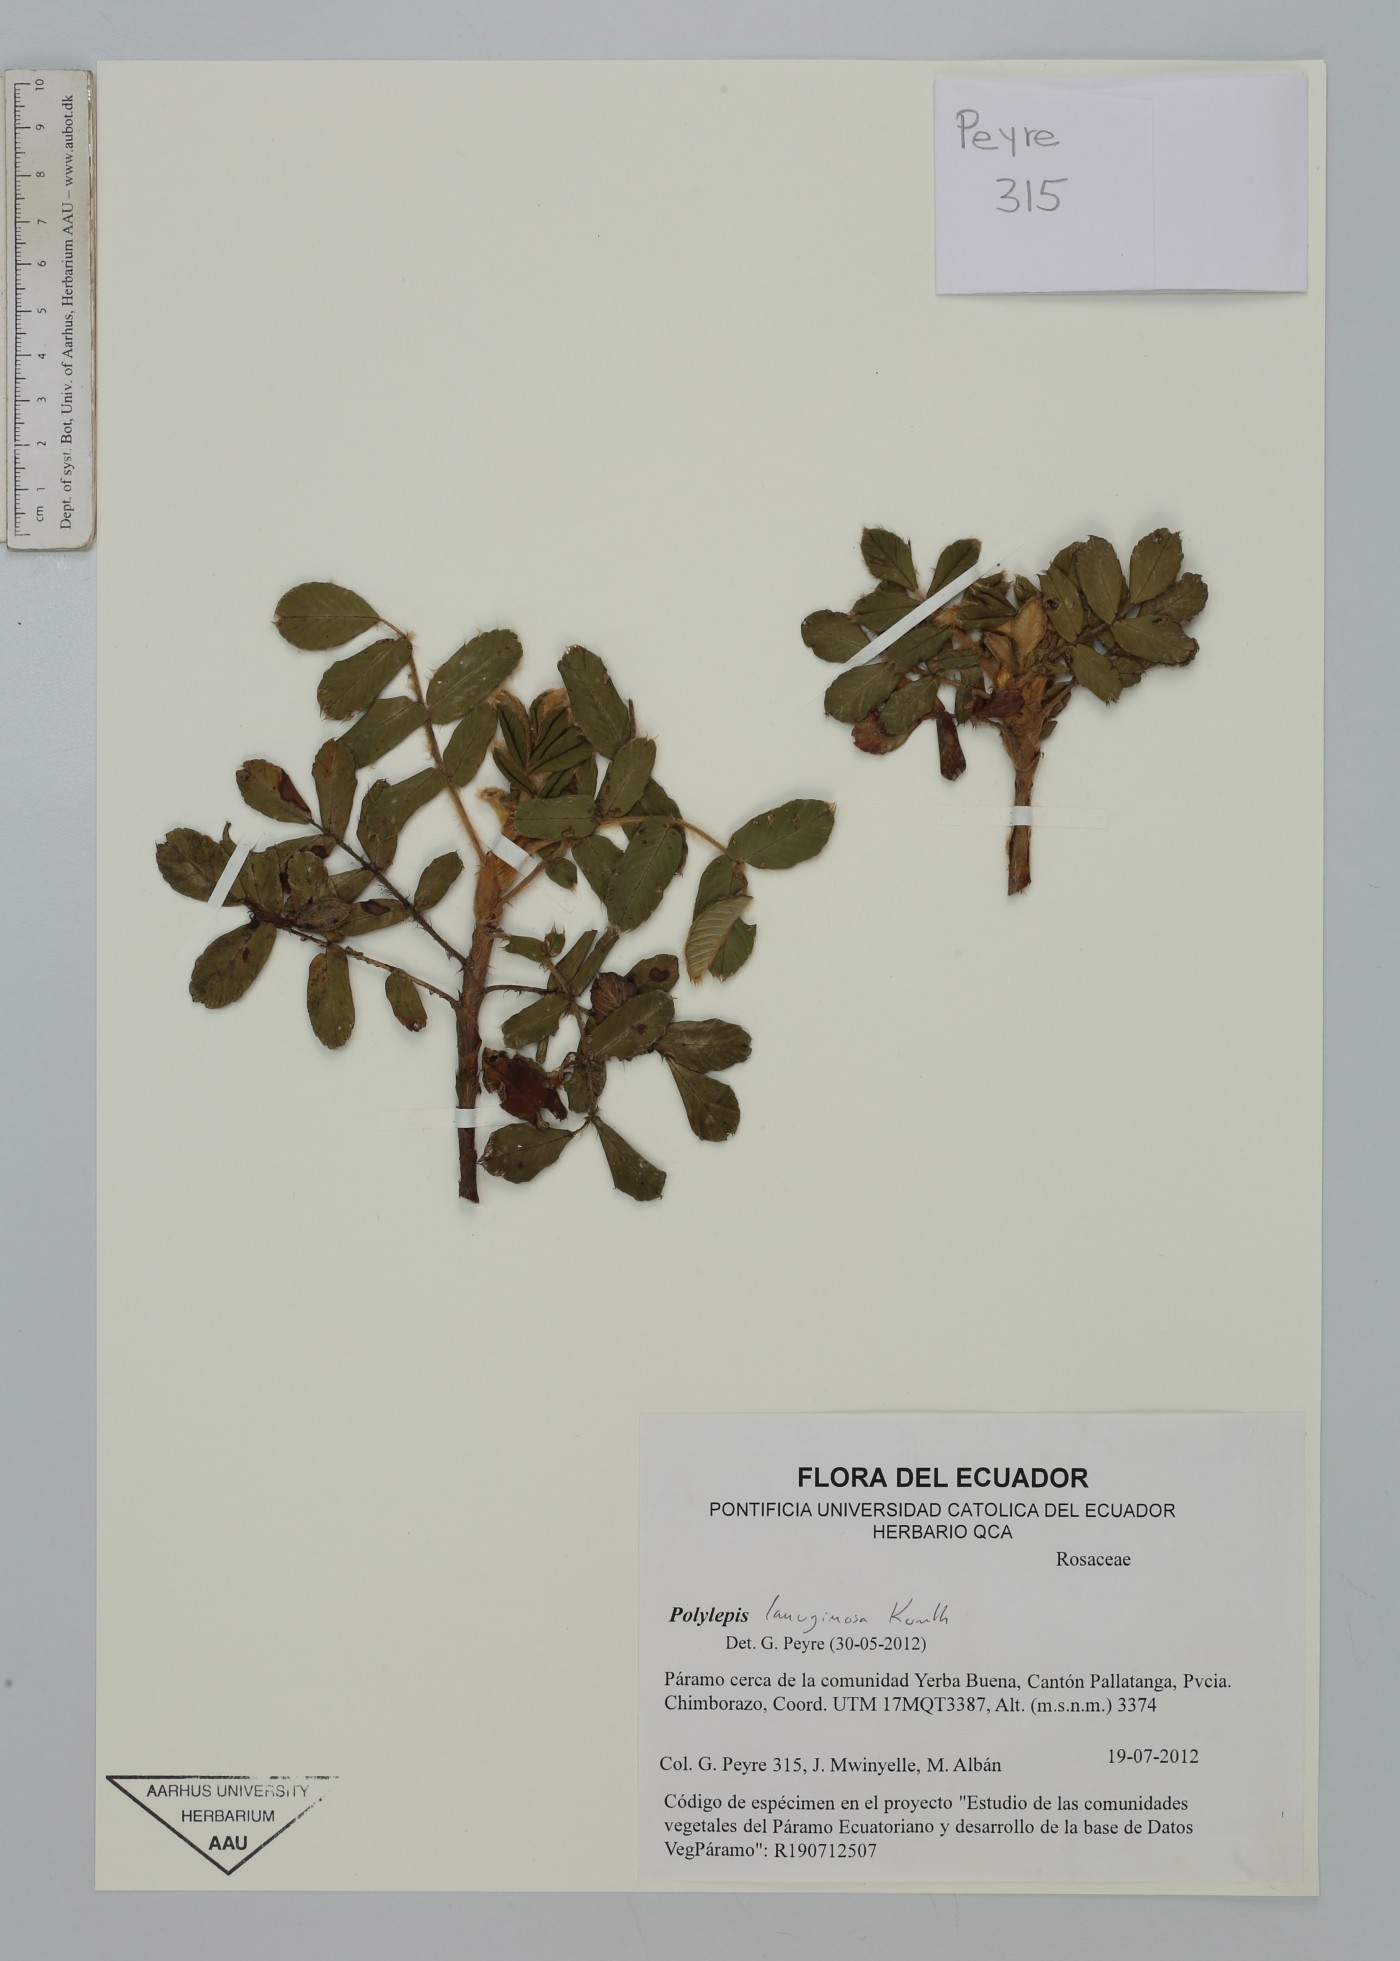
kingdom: Plantae
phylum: Tracheophyta
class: Magnoliopsida
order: Rosales
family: Rosaceae
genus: Polylepis
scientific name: Polylepis lanuginosa
